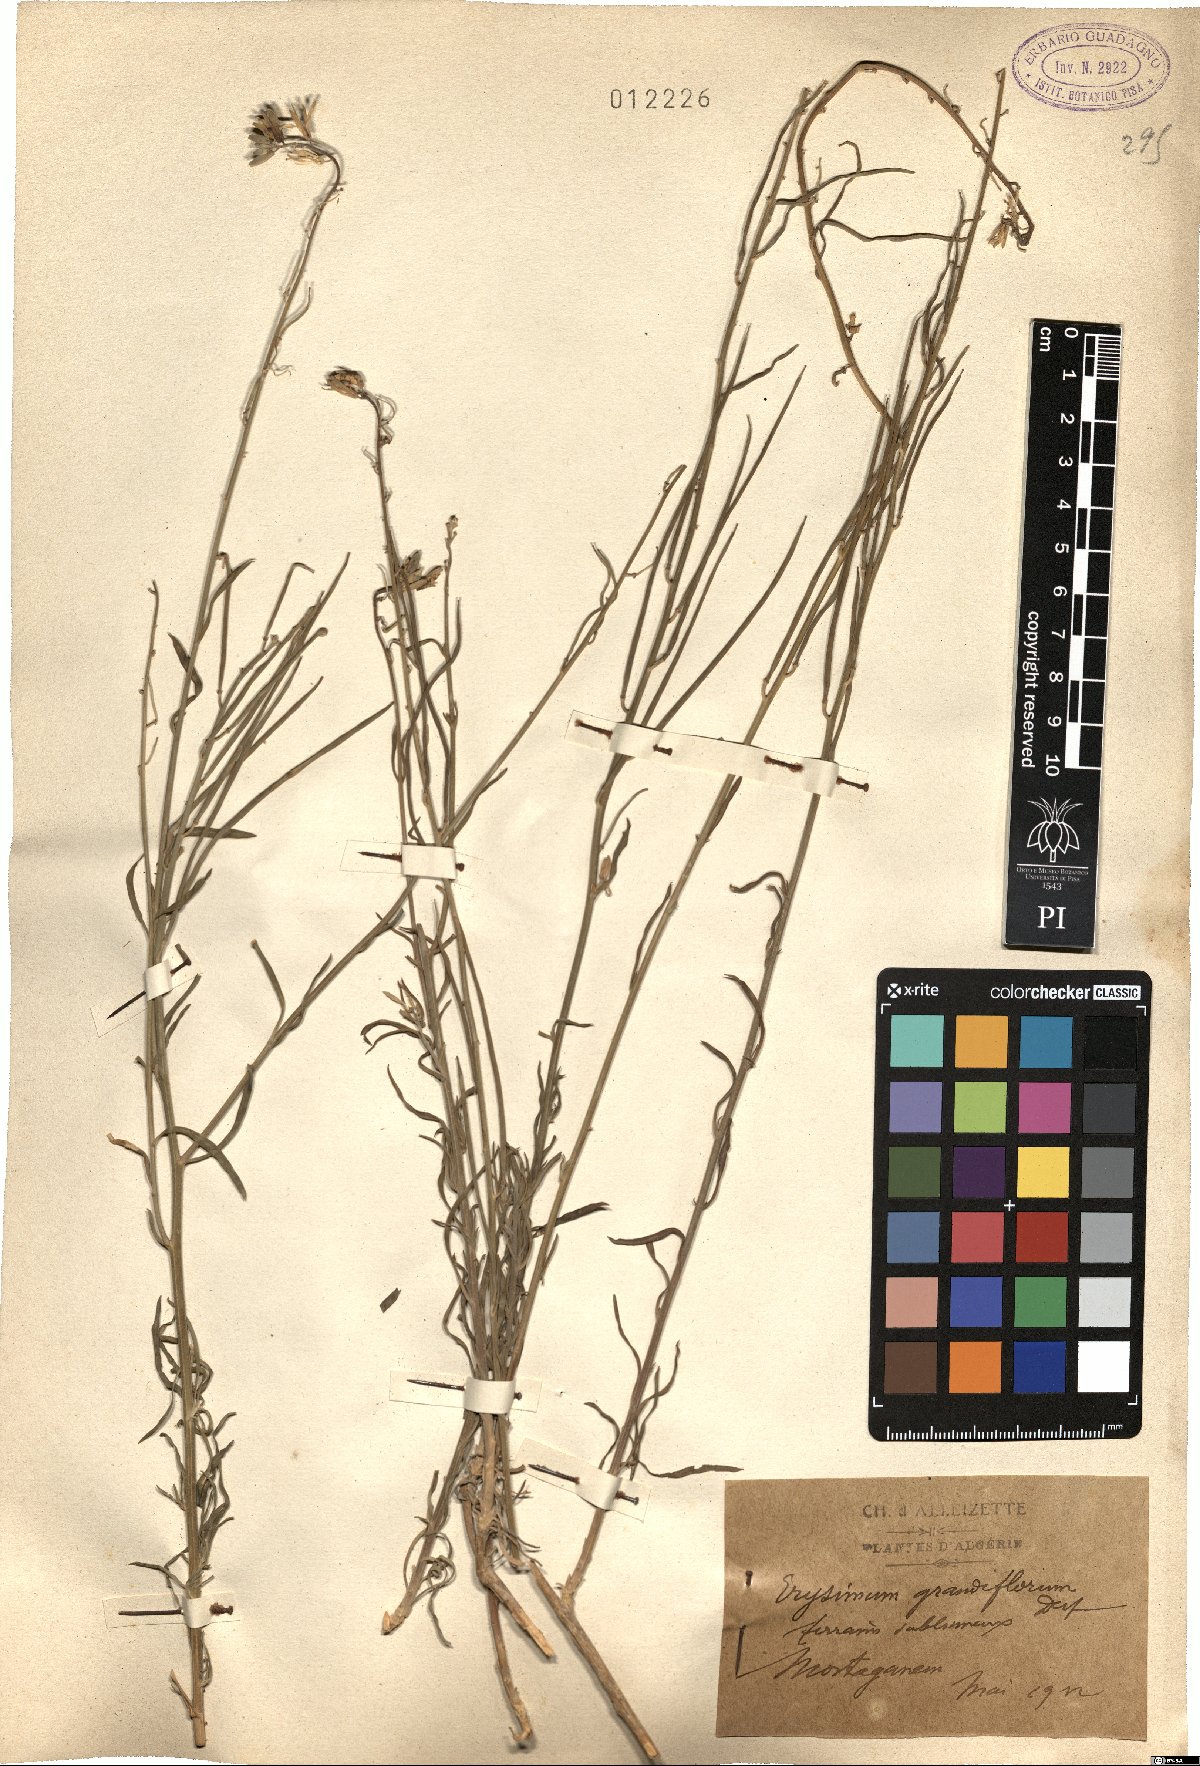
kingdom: Plantae
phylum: Tracheophyta
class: Magnoliopsida
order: Brassicales
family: Brassicaceae
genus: Erysimum
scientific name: Erysimum duriaei
